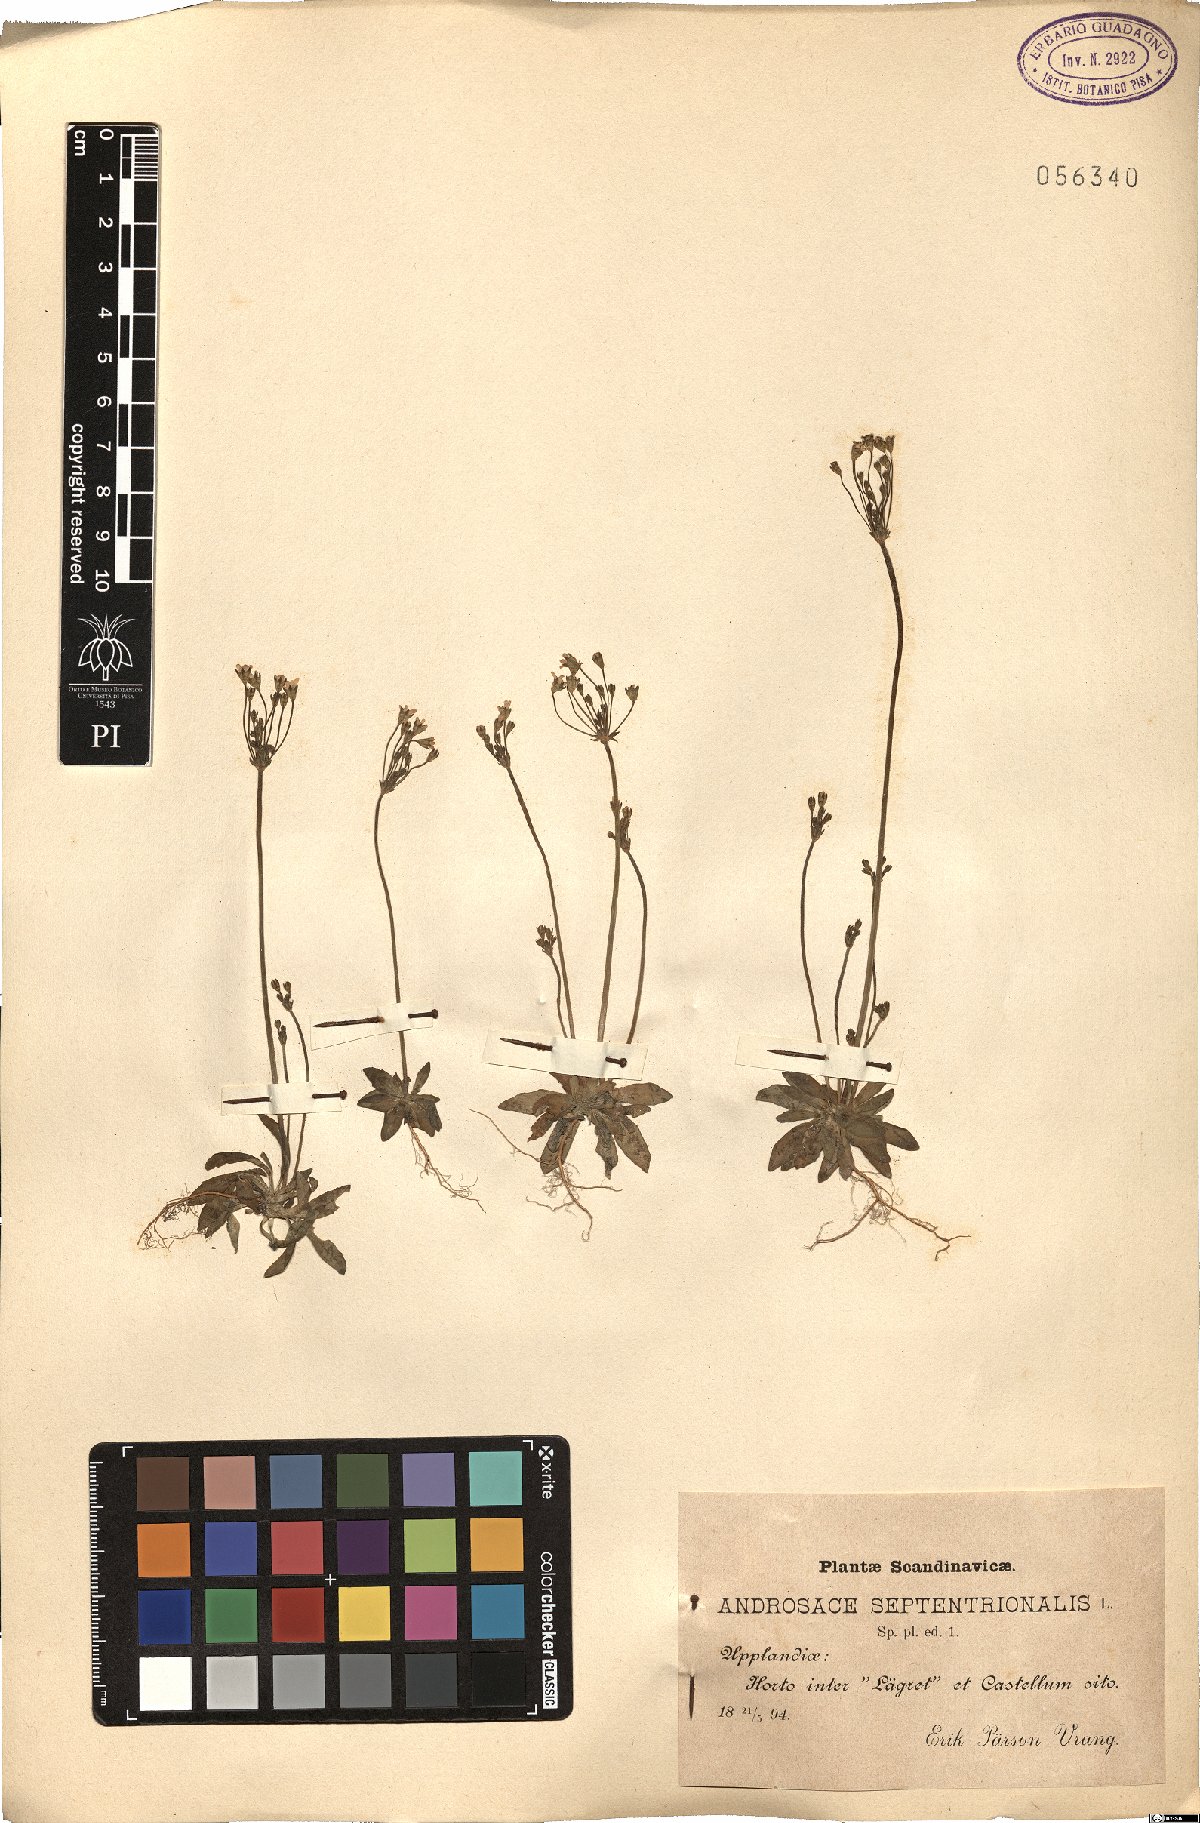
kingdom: Plantae
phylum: Tracheophyta
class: Magnoliopsida
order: Ericales
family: Primulaceae
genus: Androsace
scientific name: Androsace septentrionalis
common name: Hairy northern fairy-candelabra
